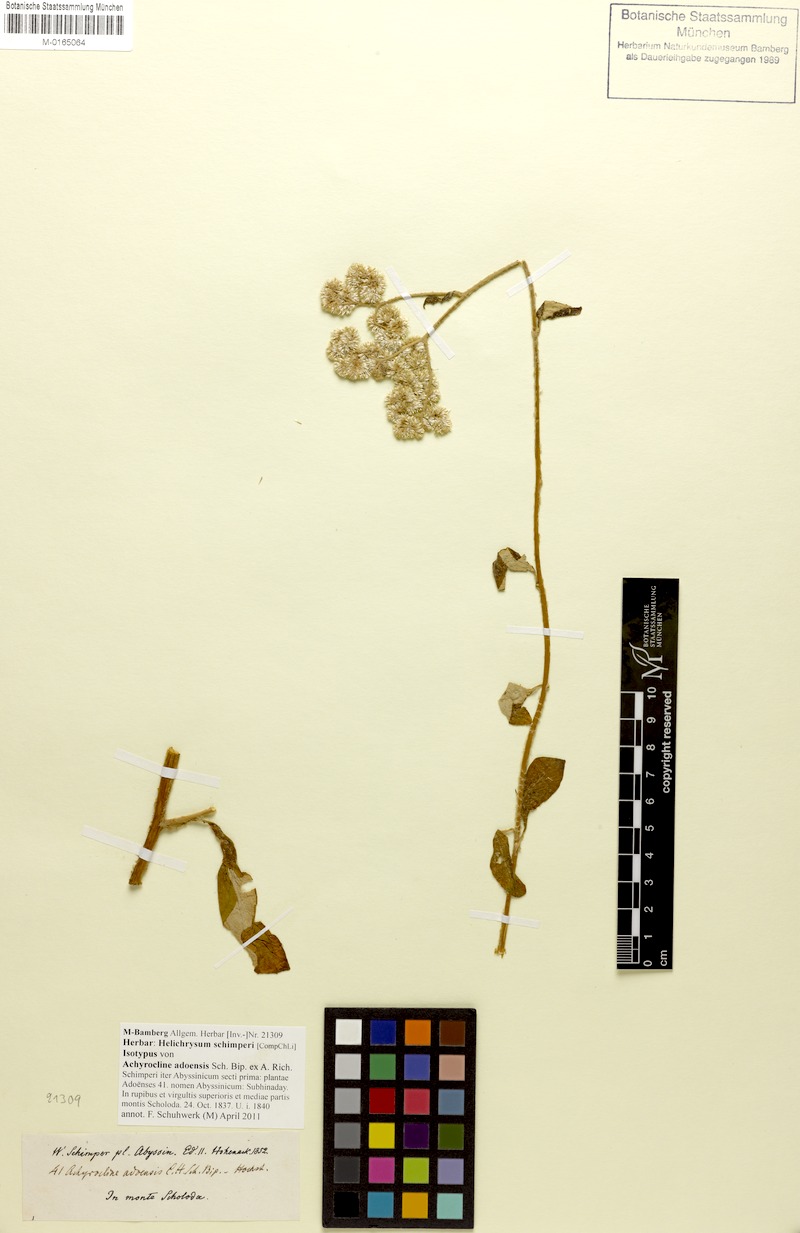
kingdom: Plantae
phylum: Tracheophyta
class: Magnoliopsida
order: Asterales
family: Asteraceae
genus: Helichrysum
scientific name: Helichrysum schimperi
